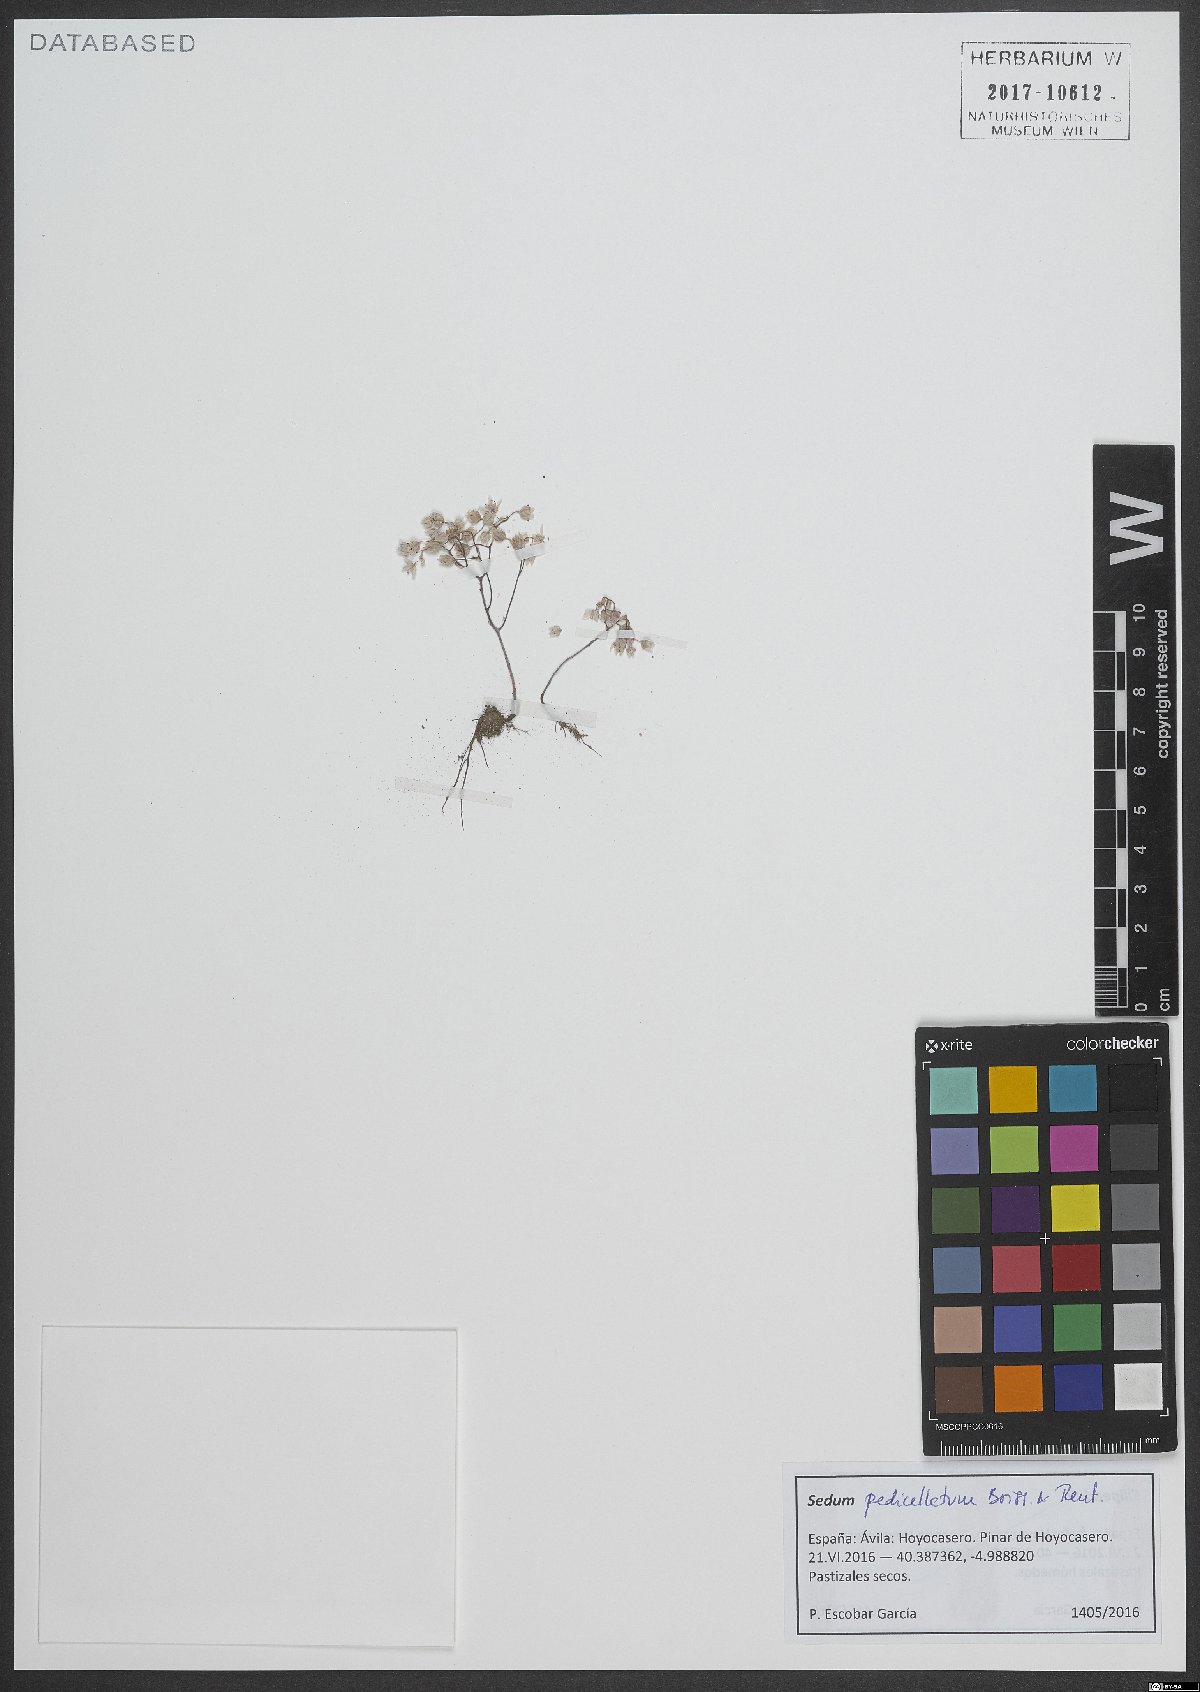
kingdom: Plantae
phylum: Tracheophyta
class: Magnoliopsida
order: Saxifragales
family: Crassulaceae
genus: Sedum
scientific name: Sedum pedicellatum
